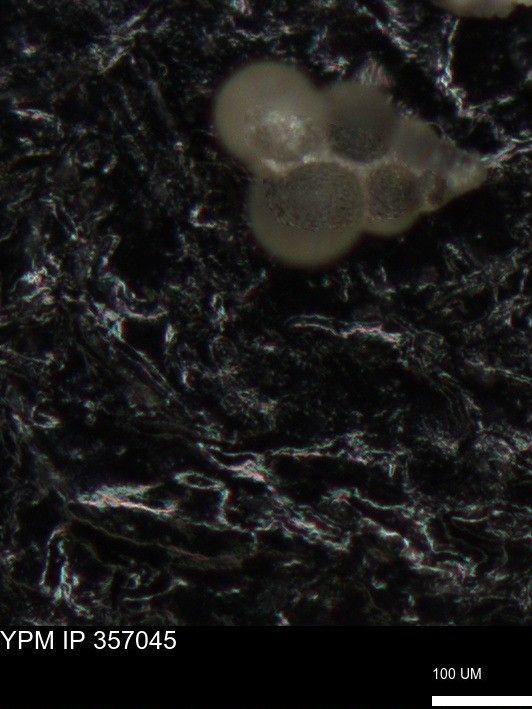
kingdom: Chromista
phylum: Foraminifera
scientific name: Foraminifera
